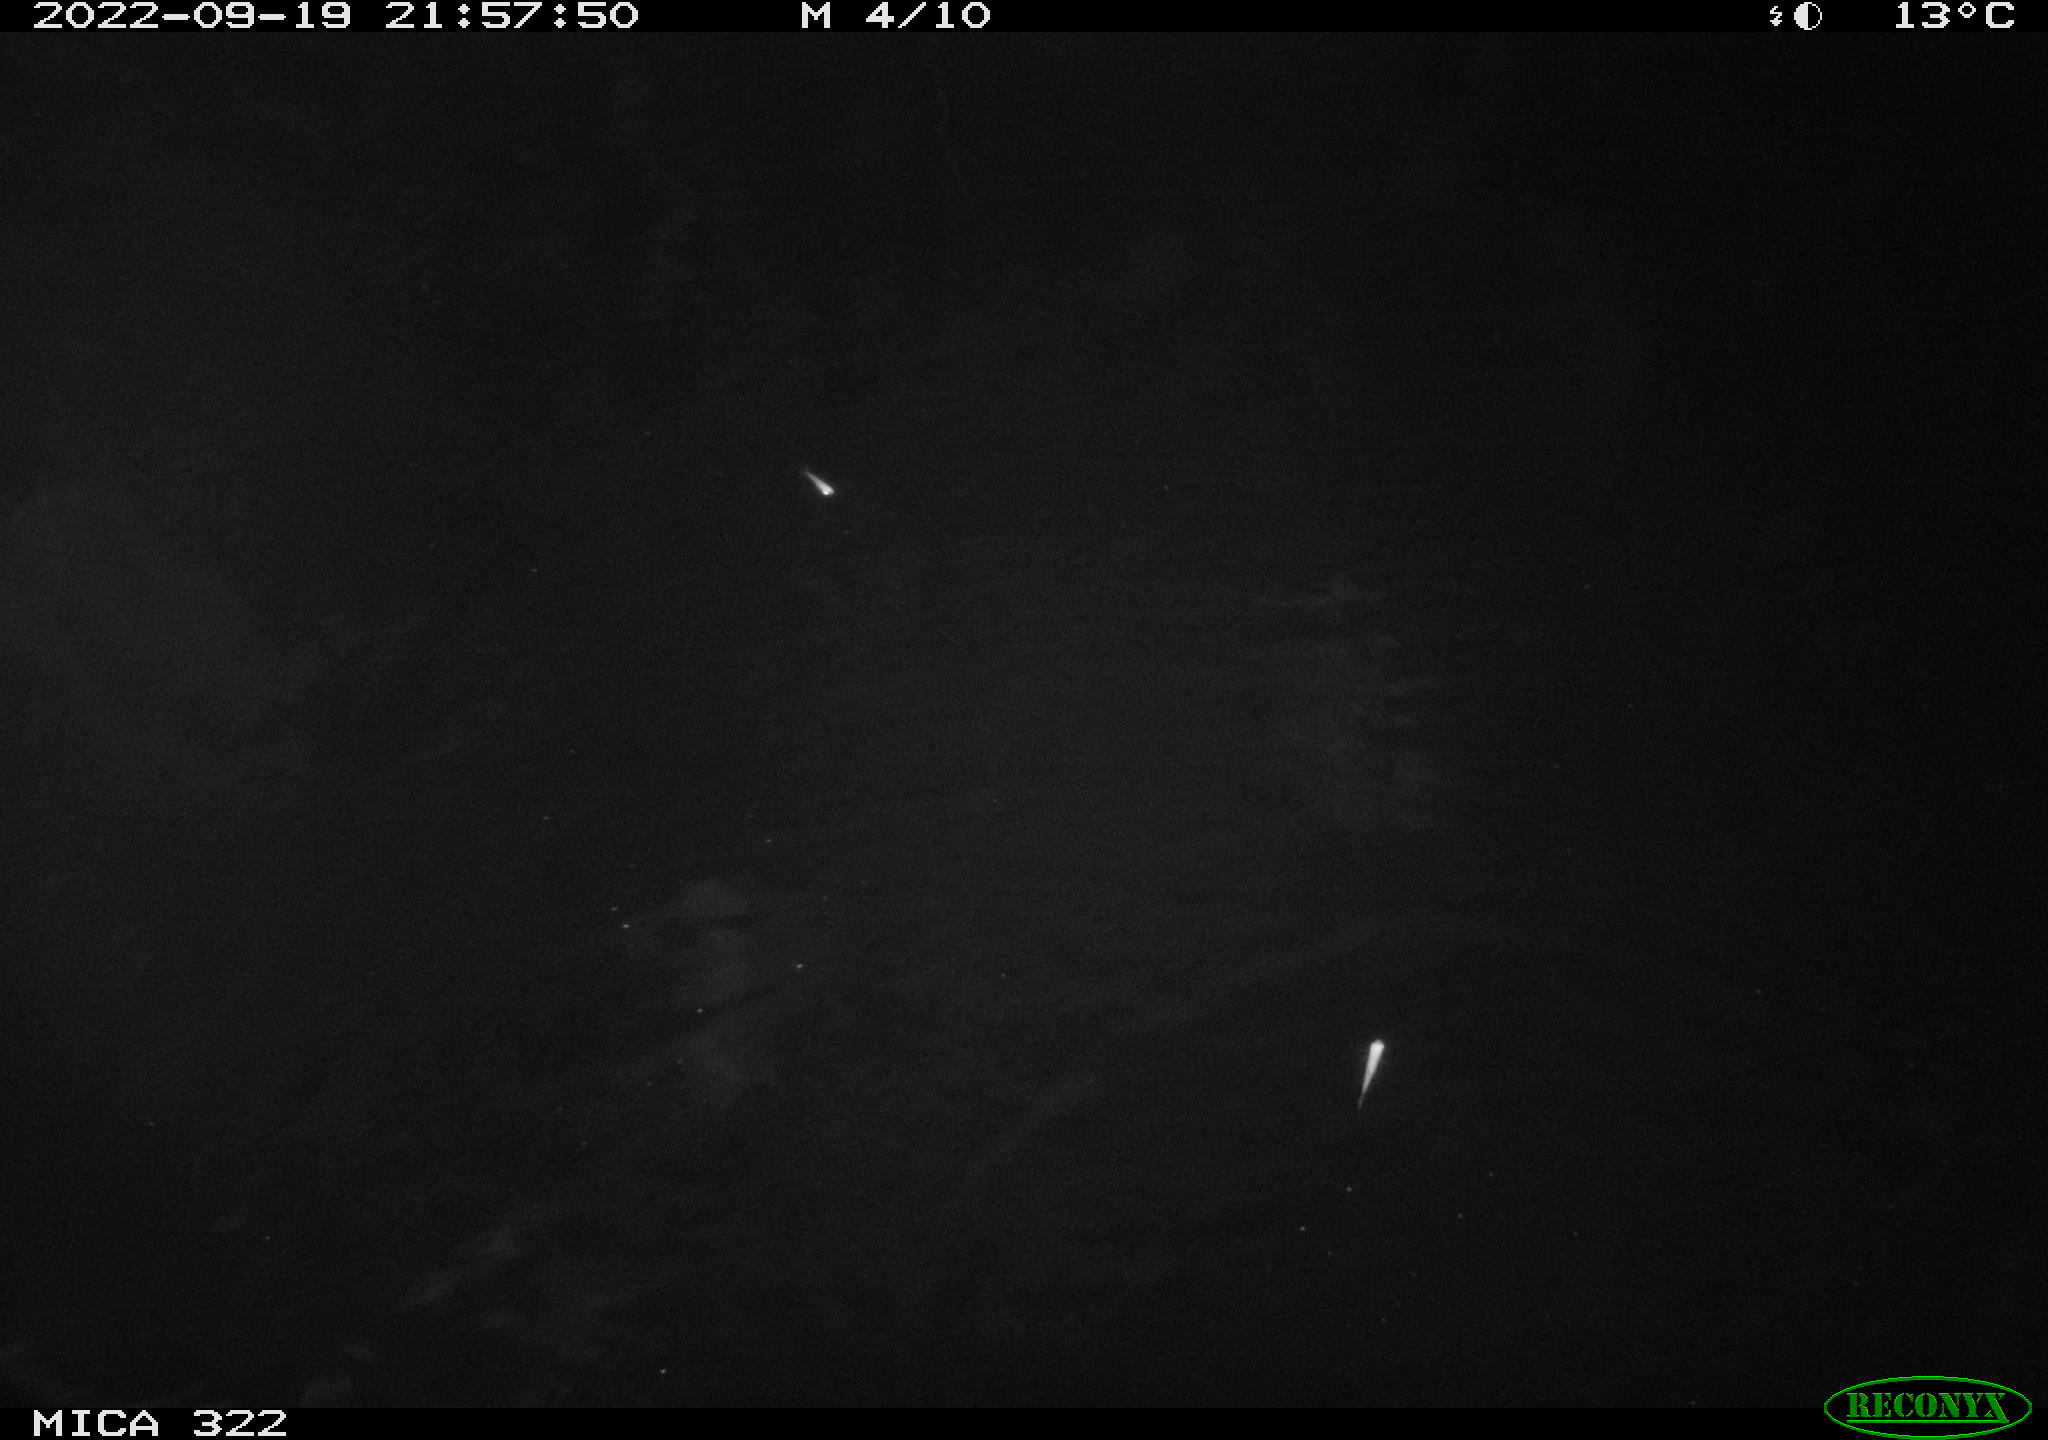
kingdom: Animalia
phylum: Chordata
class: Mammalia
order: Rodentia
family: Cricetidae
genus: Ondatra
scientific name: Ondatra zibethicus
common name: Muskrat
